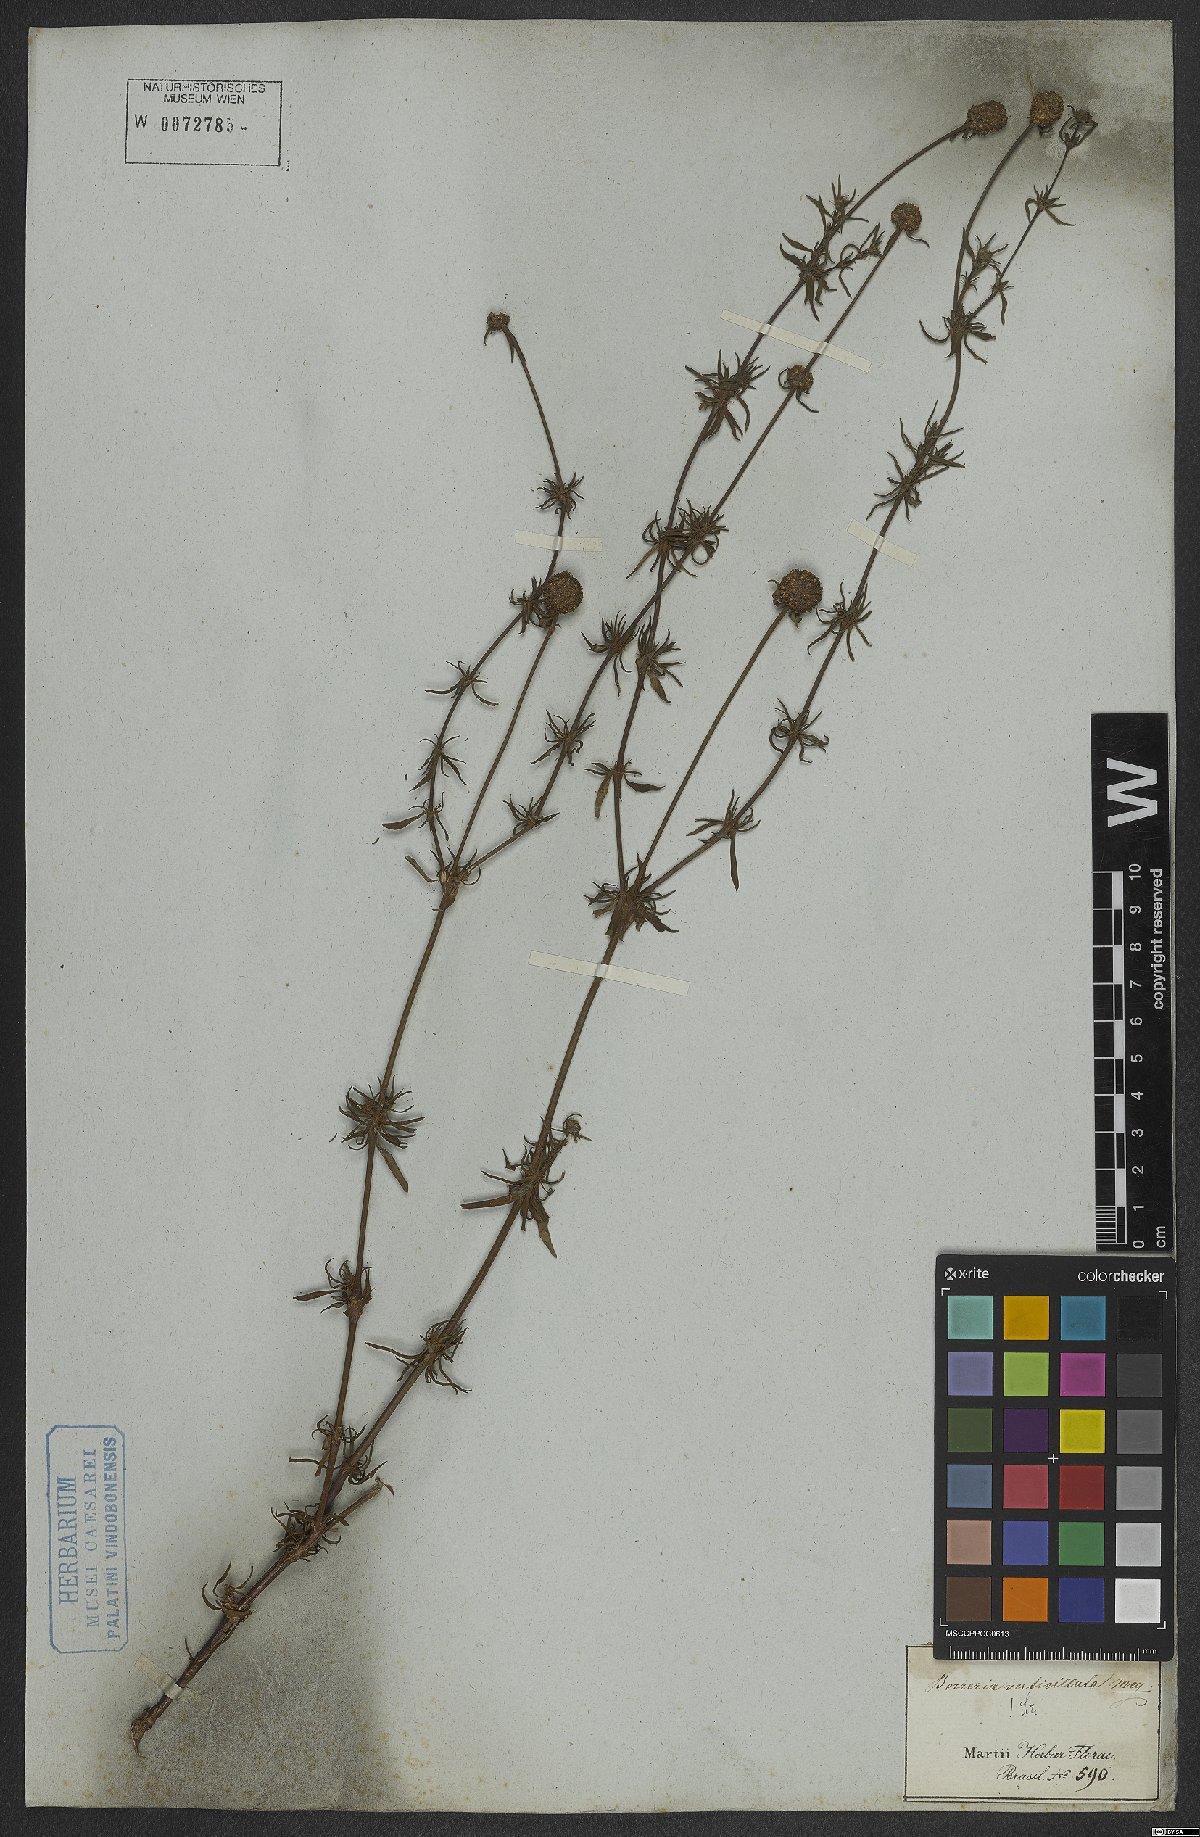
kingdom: Plantae
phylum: Tracheophyta
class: Magnoliopsida
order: Gentianales
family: Rubiaceae
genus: Spermacoce
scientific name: Spermacoce verticillata
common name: Shrubby false buttonweed
